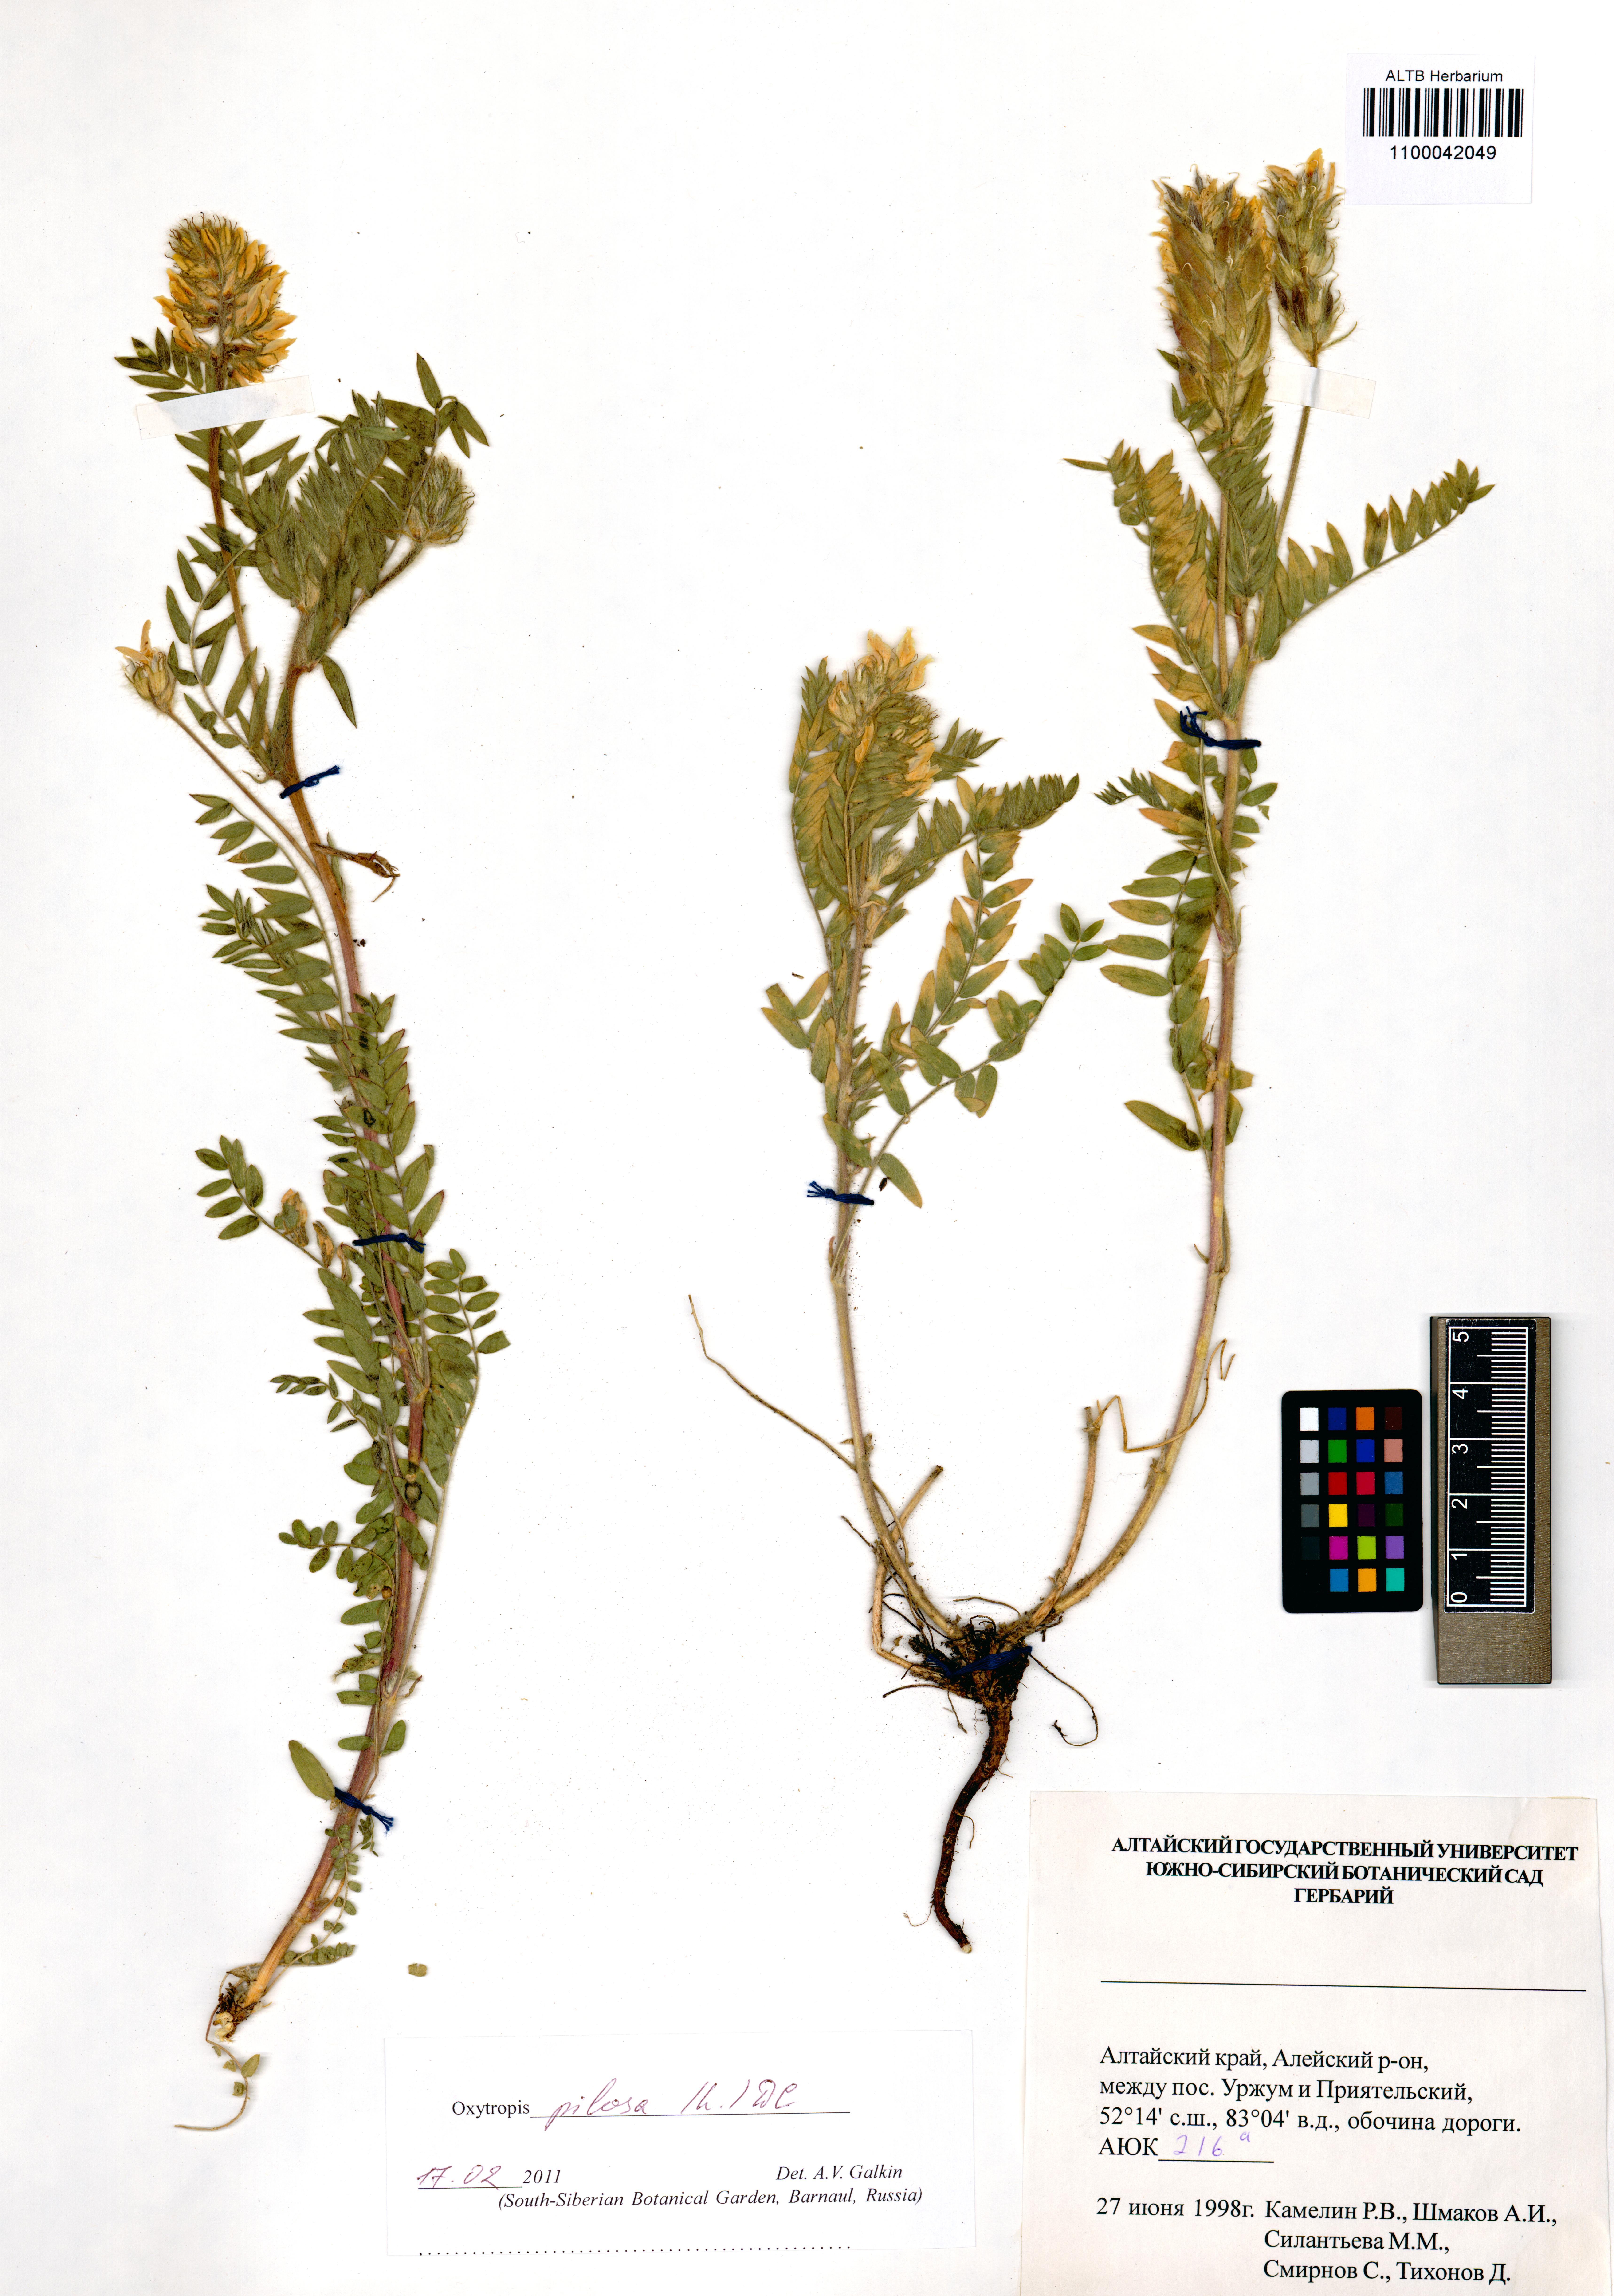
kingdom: Plantae
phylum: Tracheophyta
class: Magnoliopsida
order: Fabales
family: Fabaceae
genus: Oxytropis
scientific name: Oxytropis pilosa
